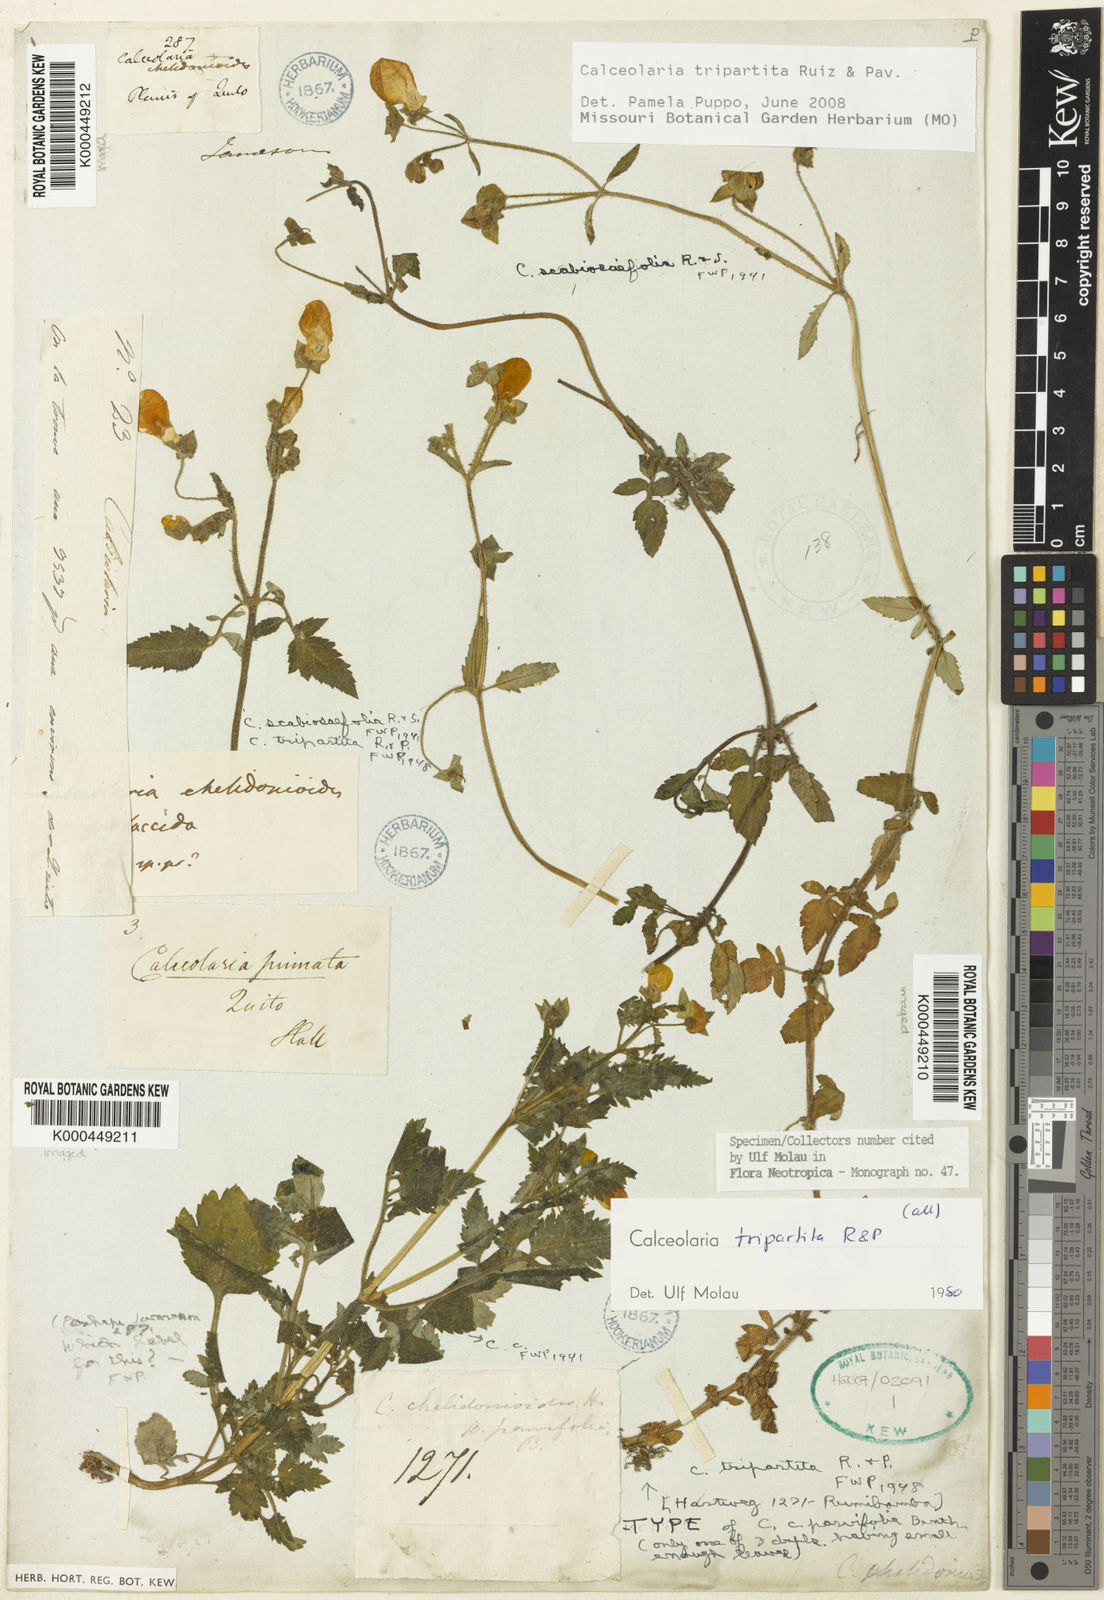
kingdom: Plantae
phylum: Tracheophyta
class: Magnoliopsida
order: Lamiales
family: Calceolariaceae
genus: Calceolaria
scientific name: Calceolaria
